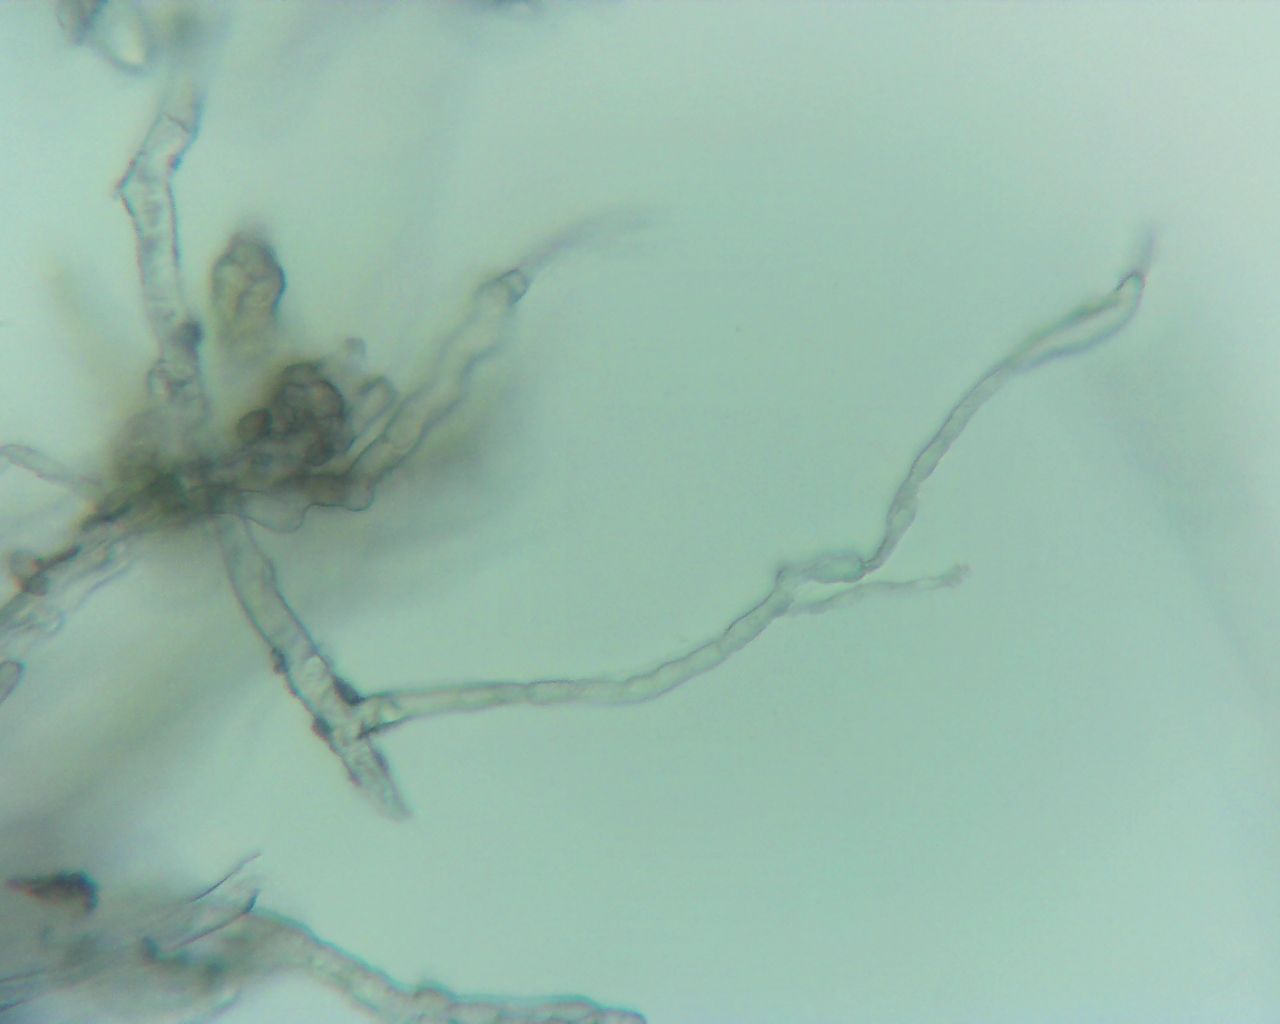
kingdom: Fungi
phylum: Ascomycota
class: Leotiomycetes
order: Helotiales
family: Erysiphaceae
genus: Podosphaera
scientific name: Podosphaera aphanis
